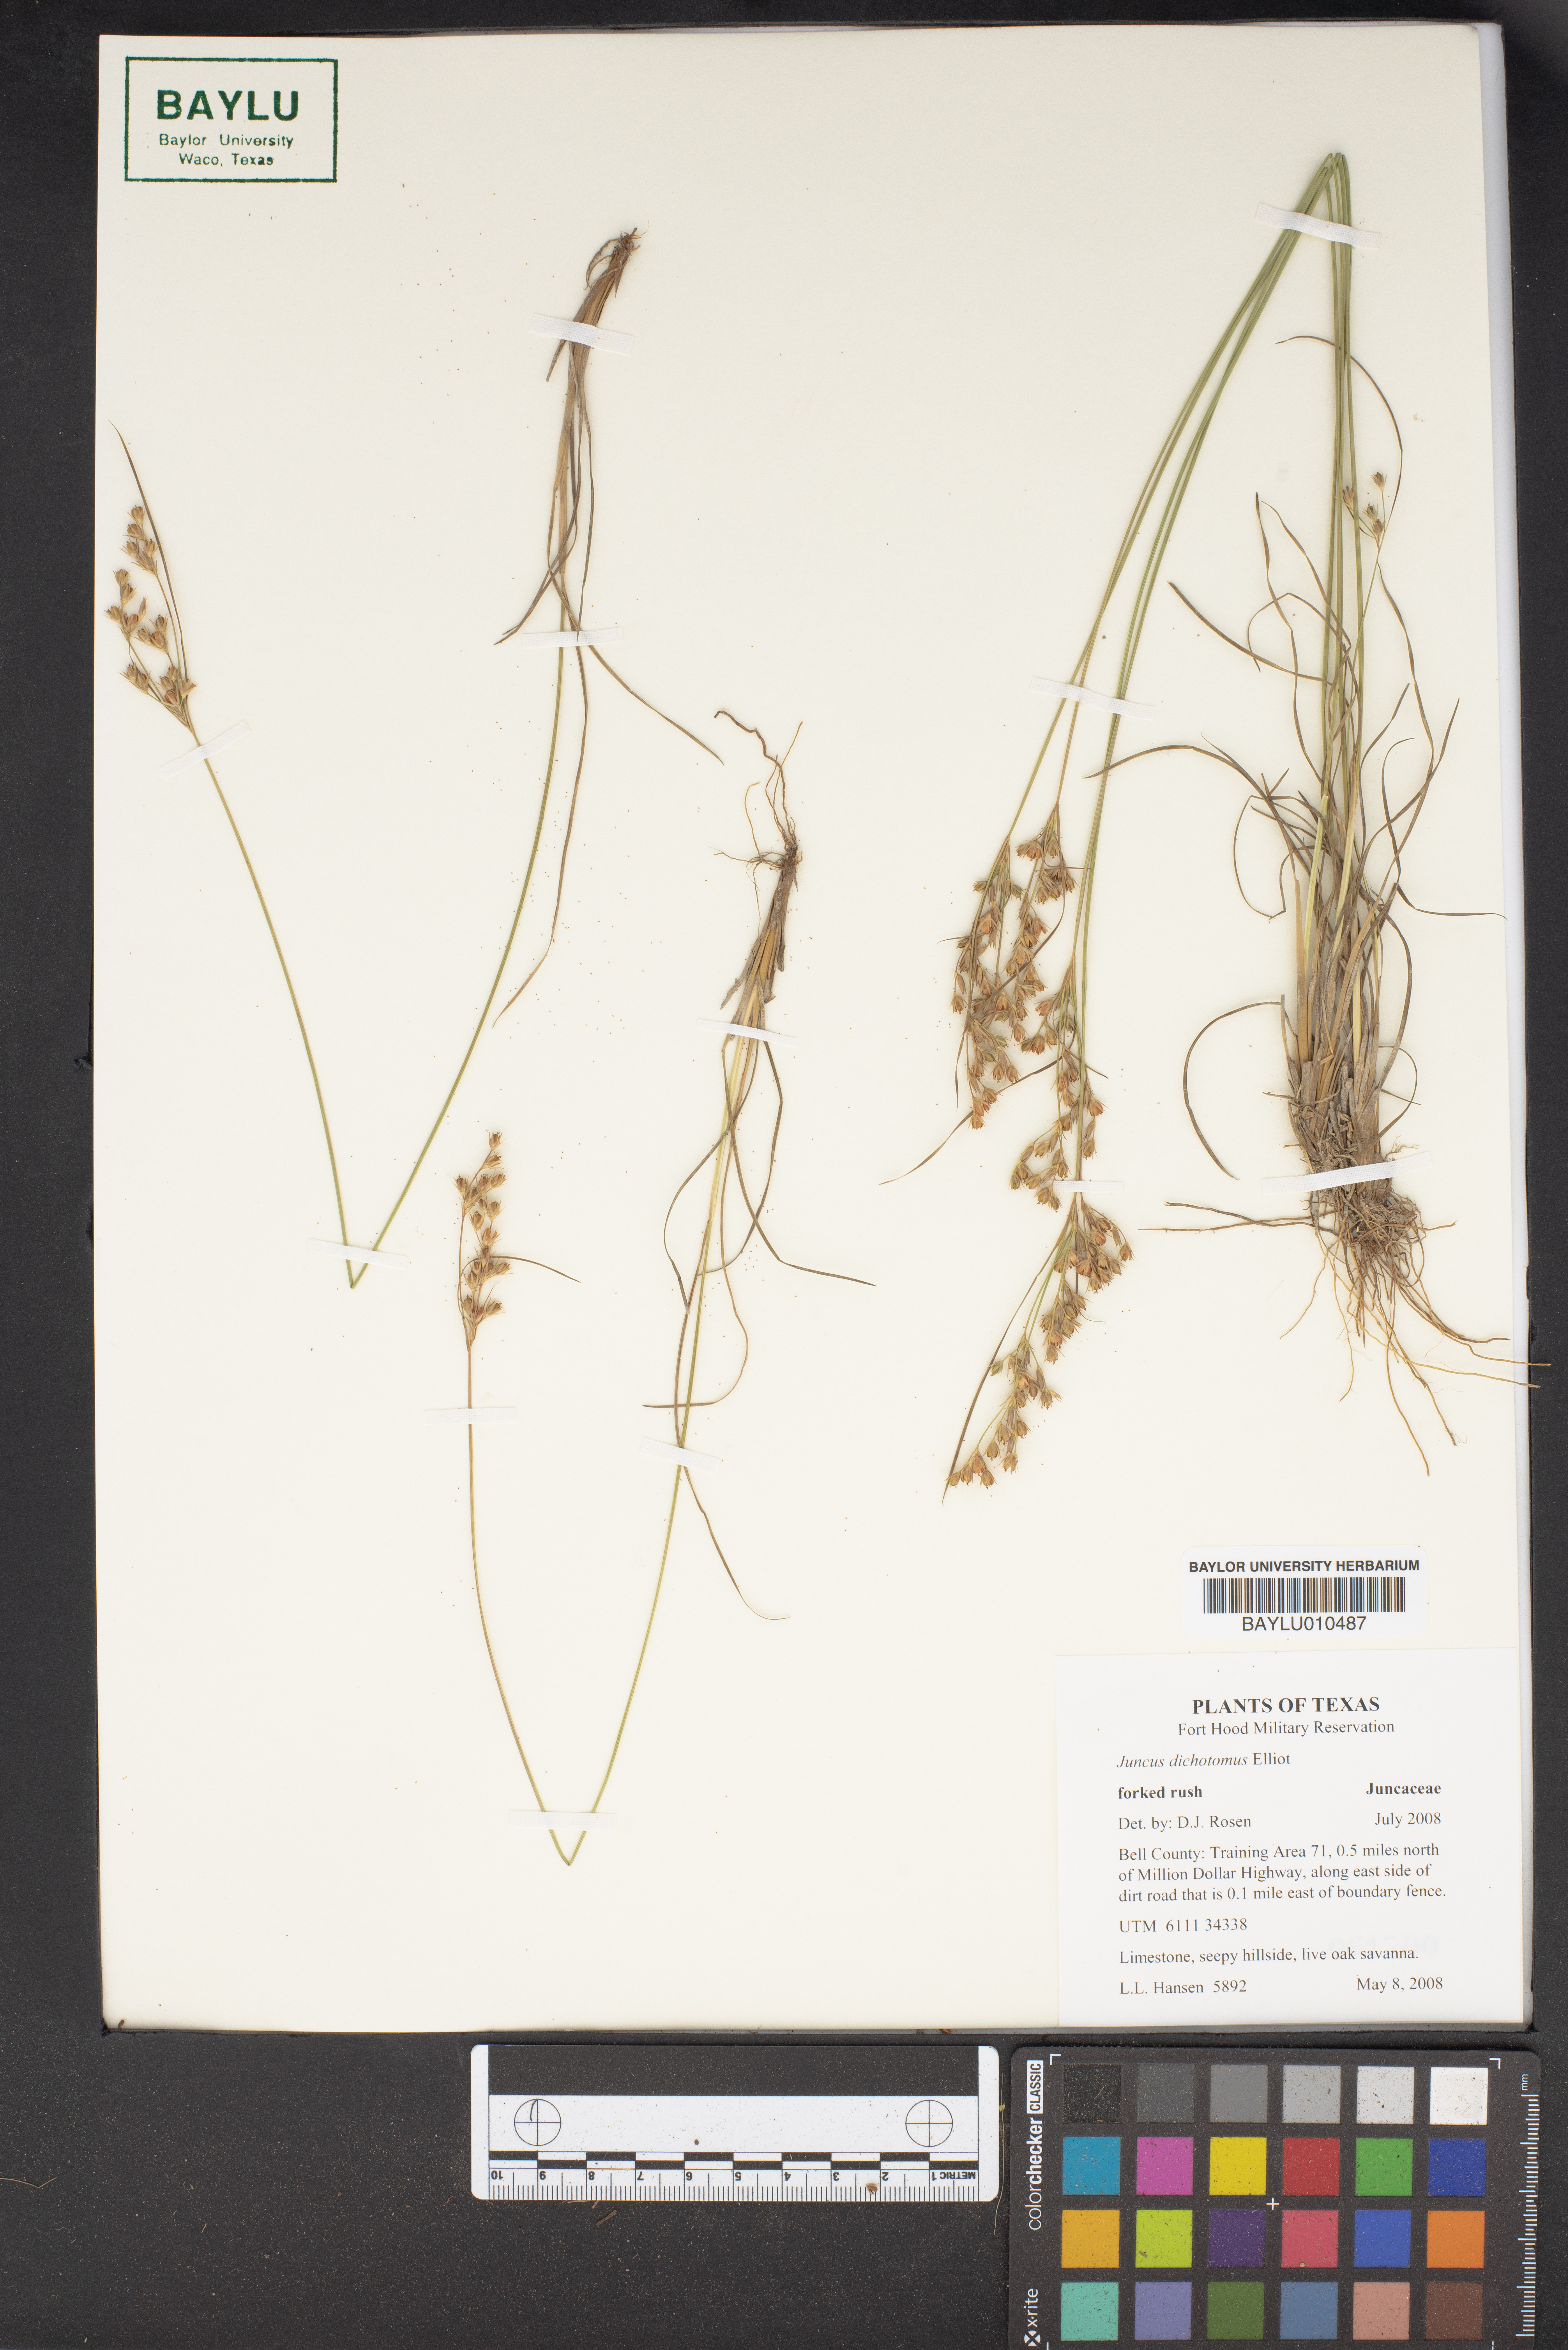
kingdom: Plantae
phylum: Tracheophyta
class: Liliopsida
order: Poales
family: Juncaceae
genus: Juncus
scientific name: Juncus dichotomus
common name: Forked rush
